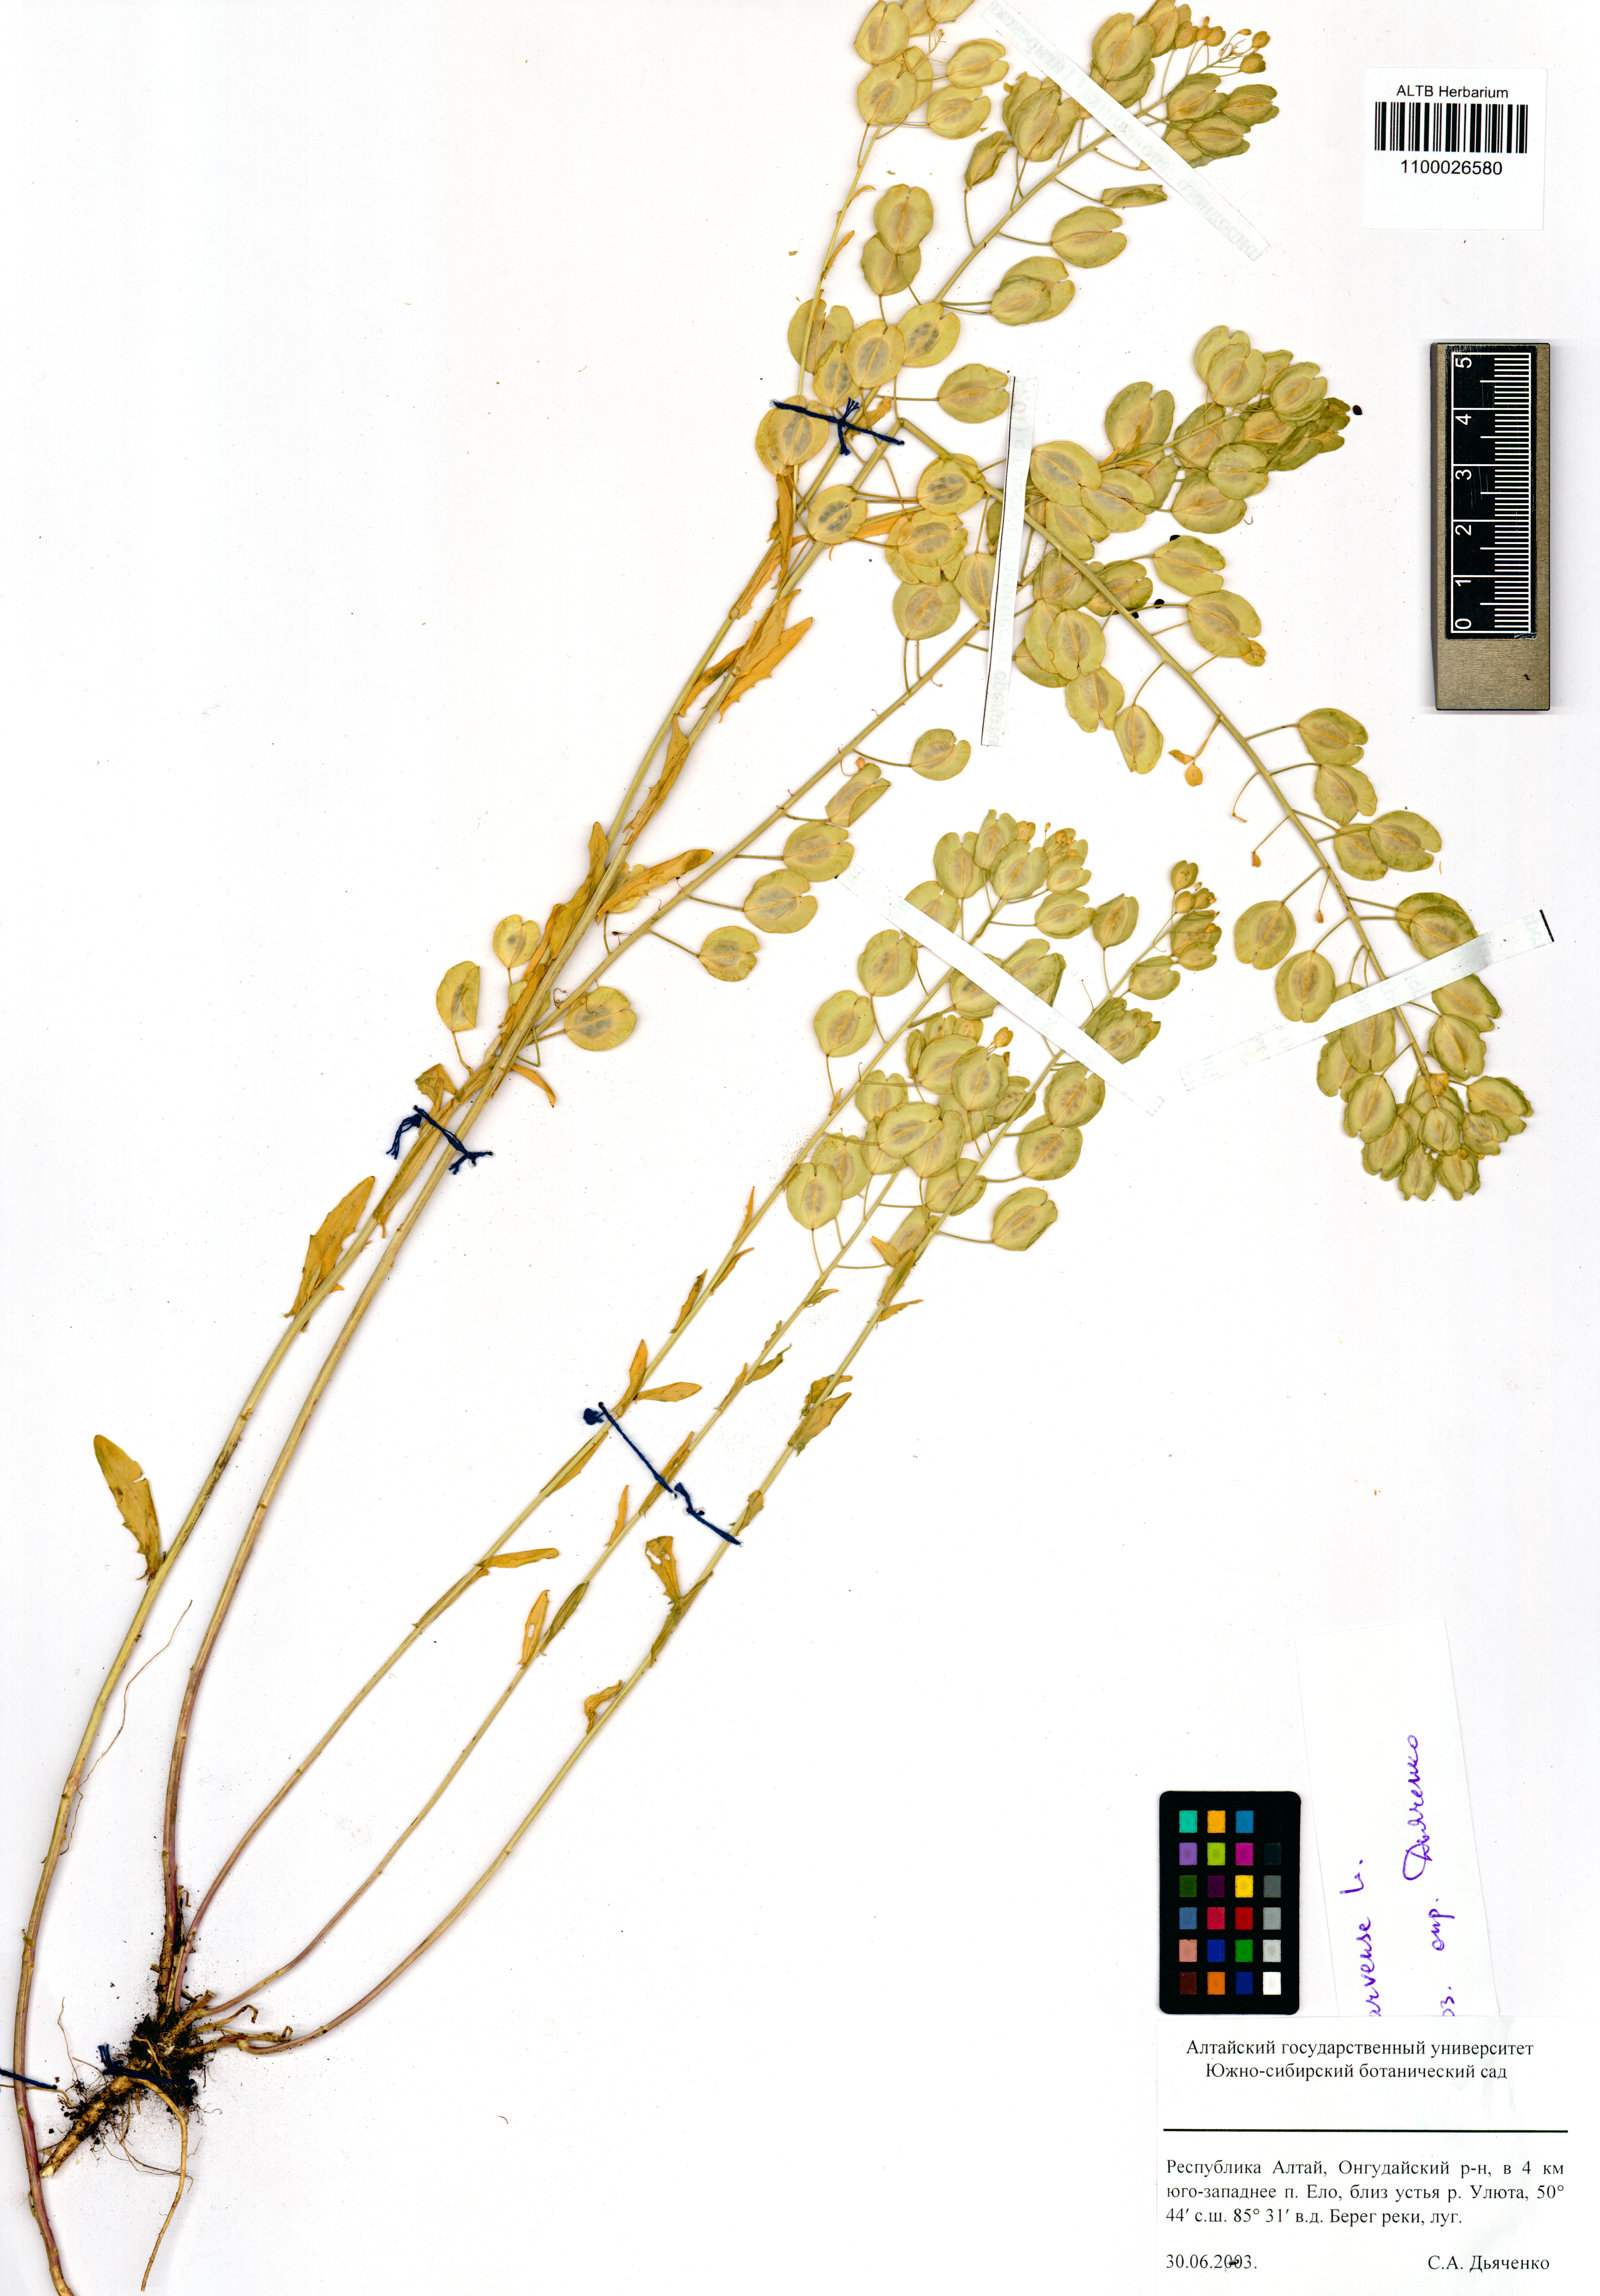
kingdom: Plantae
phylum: Tracheophyta
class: Magnoliopsida
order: Brassicales
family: Brassicaceae
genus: Thlaspi
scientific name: Thlaspi arvense
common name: Field pennycress
